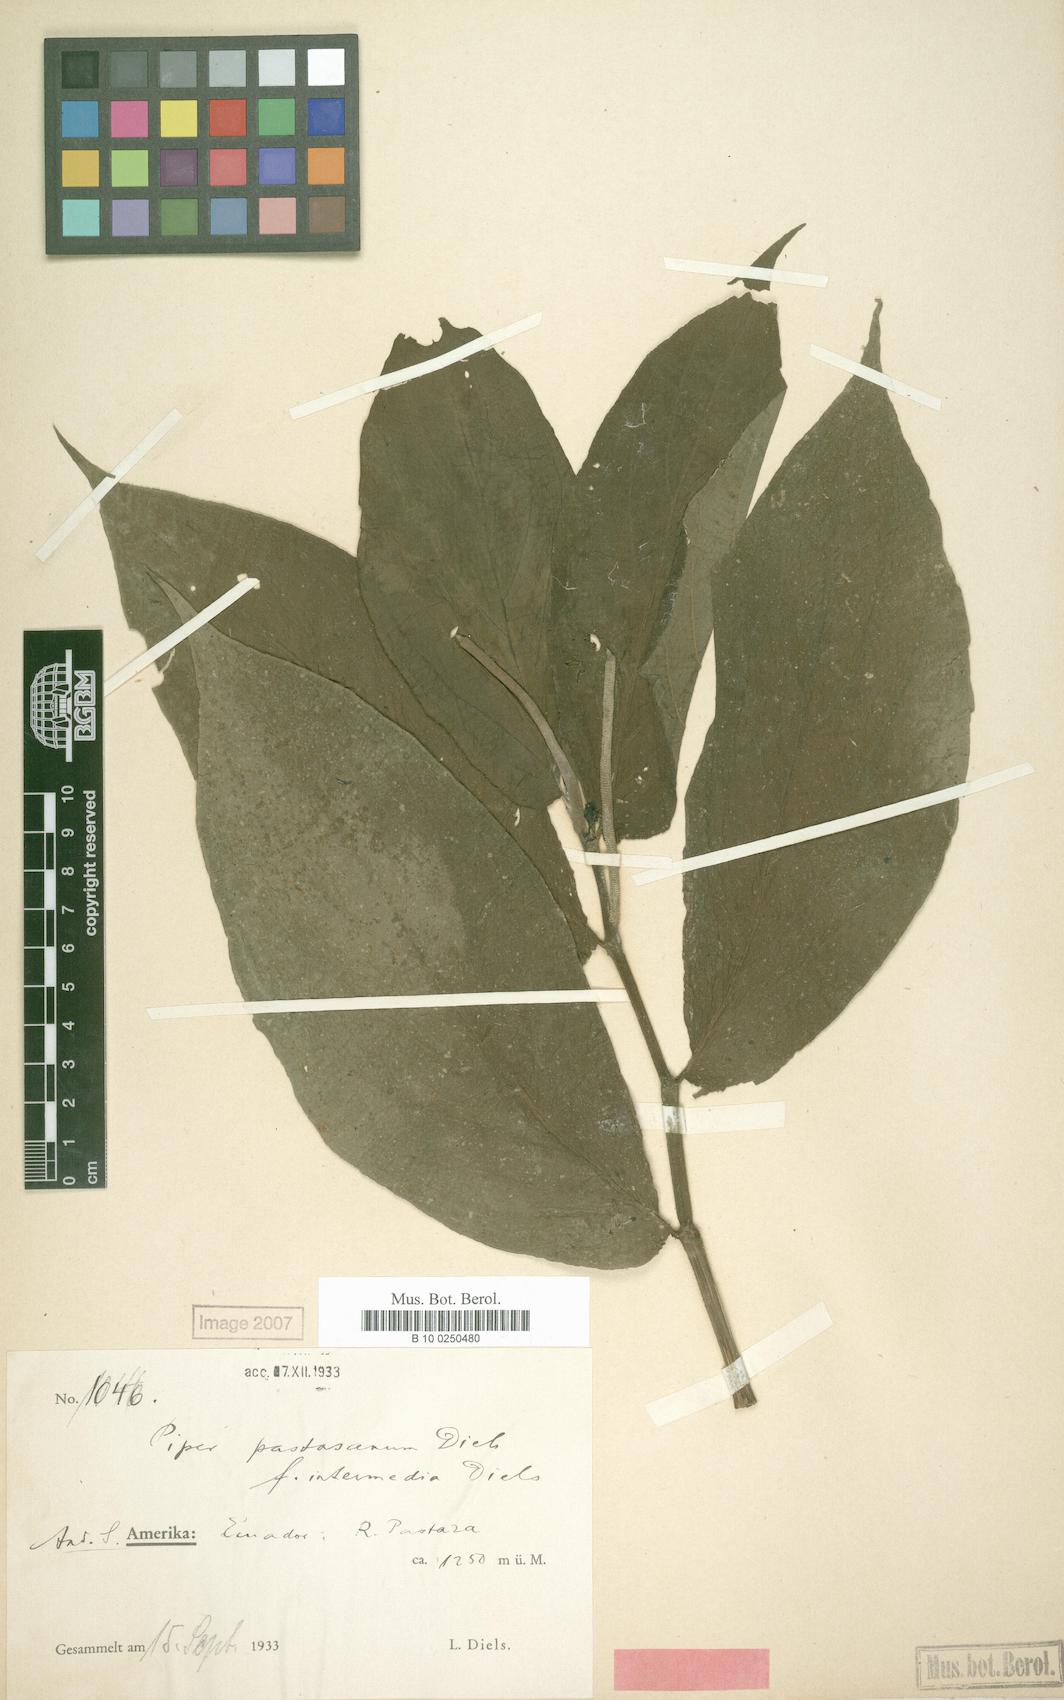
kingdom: Plantae
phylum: Tracheophyta
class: Magnoliopsida
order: Piperales
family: Piperaceae
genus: Piper
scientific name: Piper pastasanum
